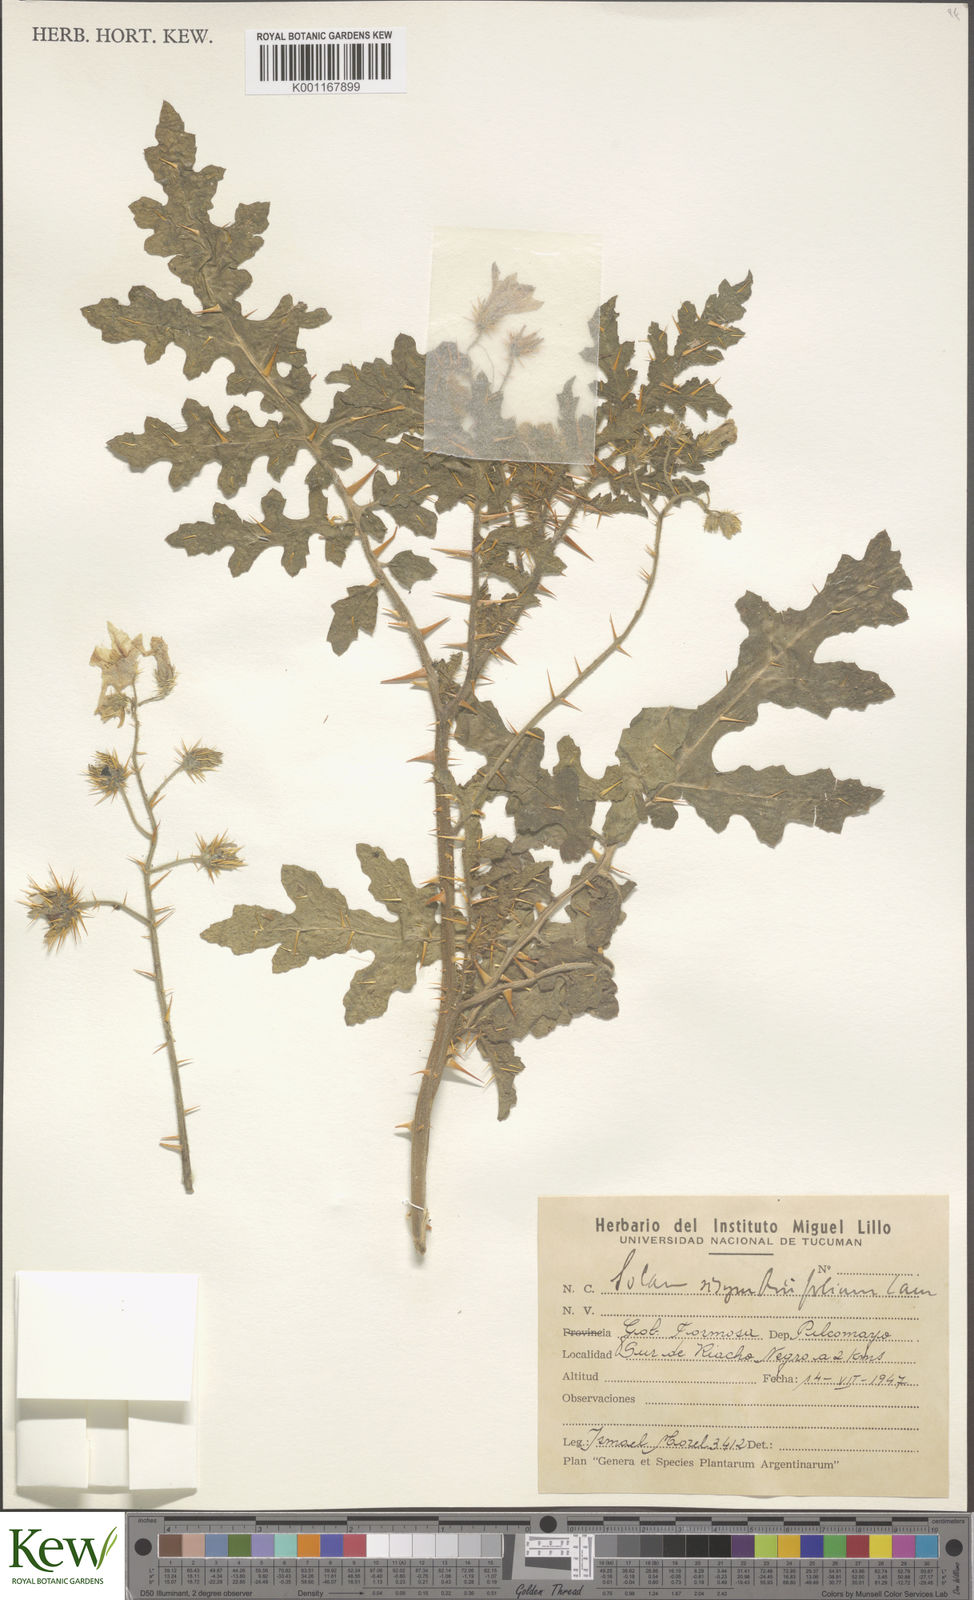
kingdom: Plantae
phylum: Tracheophyta
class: Magnoliopsida
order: Solanales
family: Solanaceae
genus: Solanum
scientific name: Solanum sisymbriifolium
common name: Red buffalo-bur
